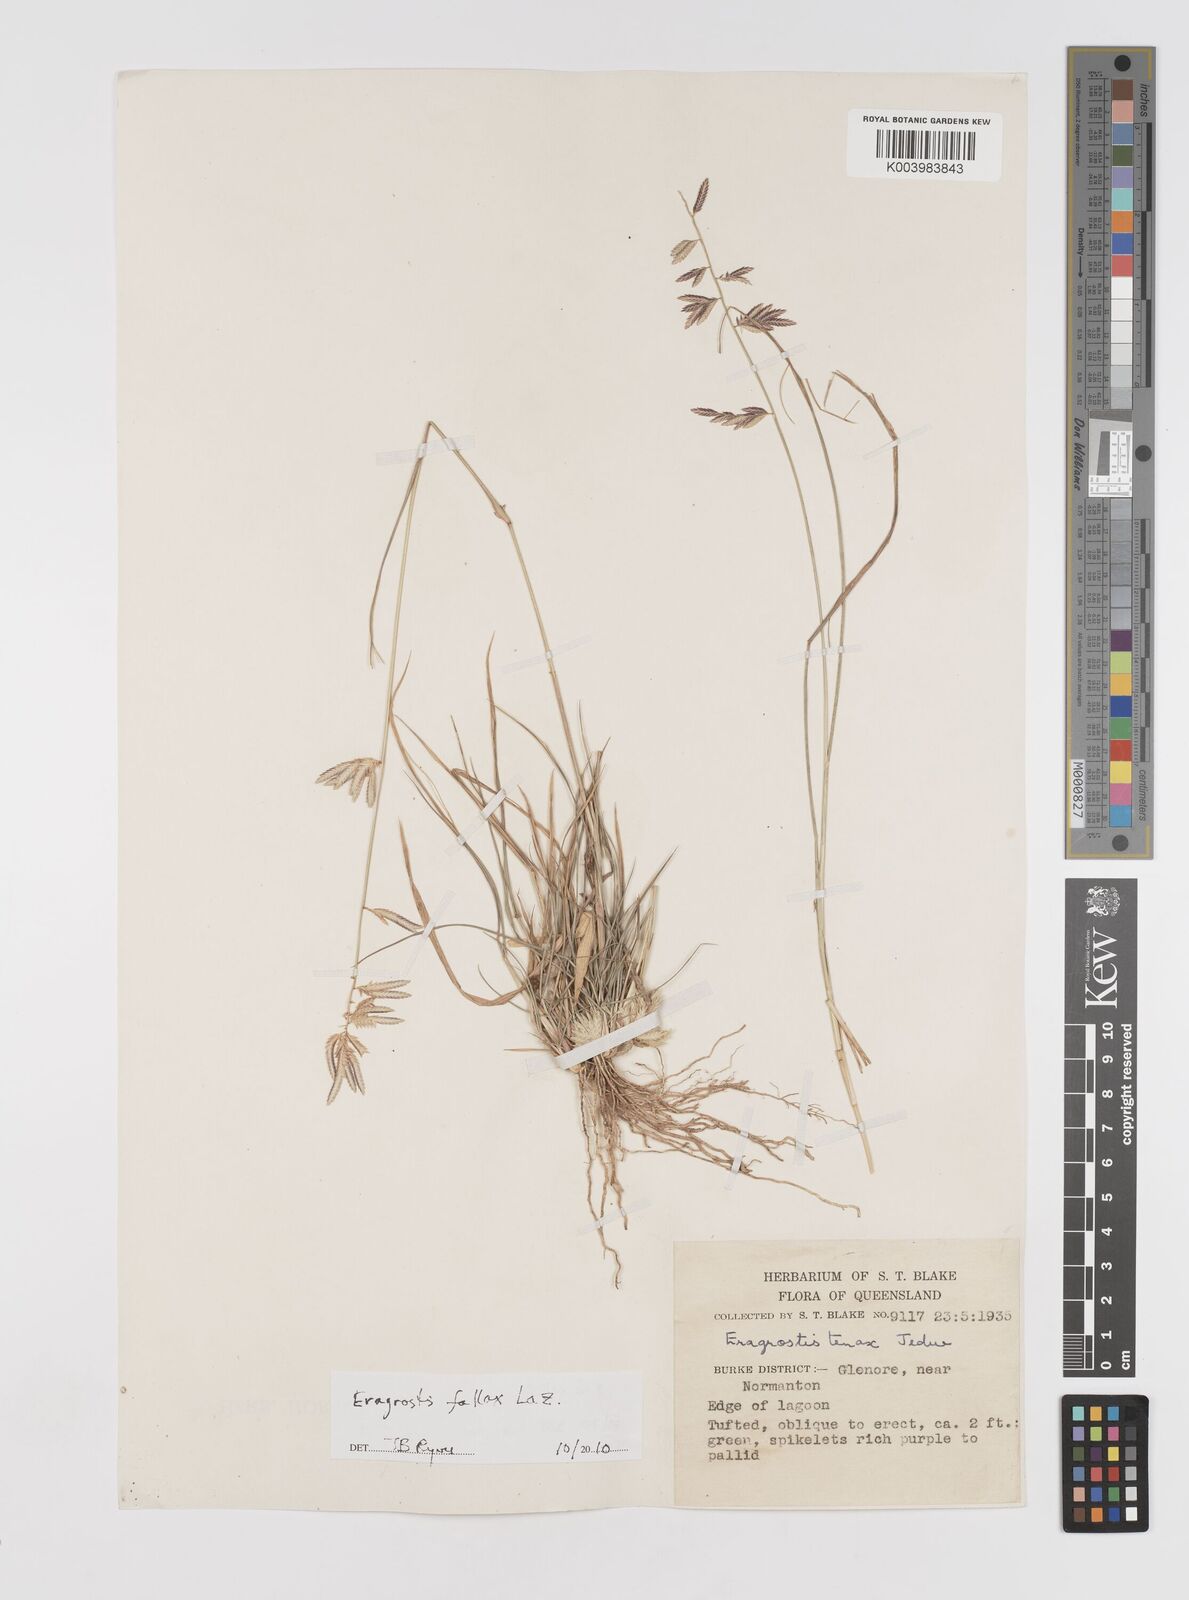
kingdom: Plantae
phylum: Tracheophyta
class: Liliopsida
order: Poales
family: Poaceae
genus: Eragrostis
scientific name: Eragrostis fallax
